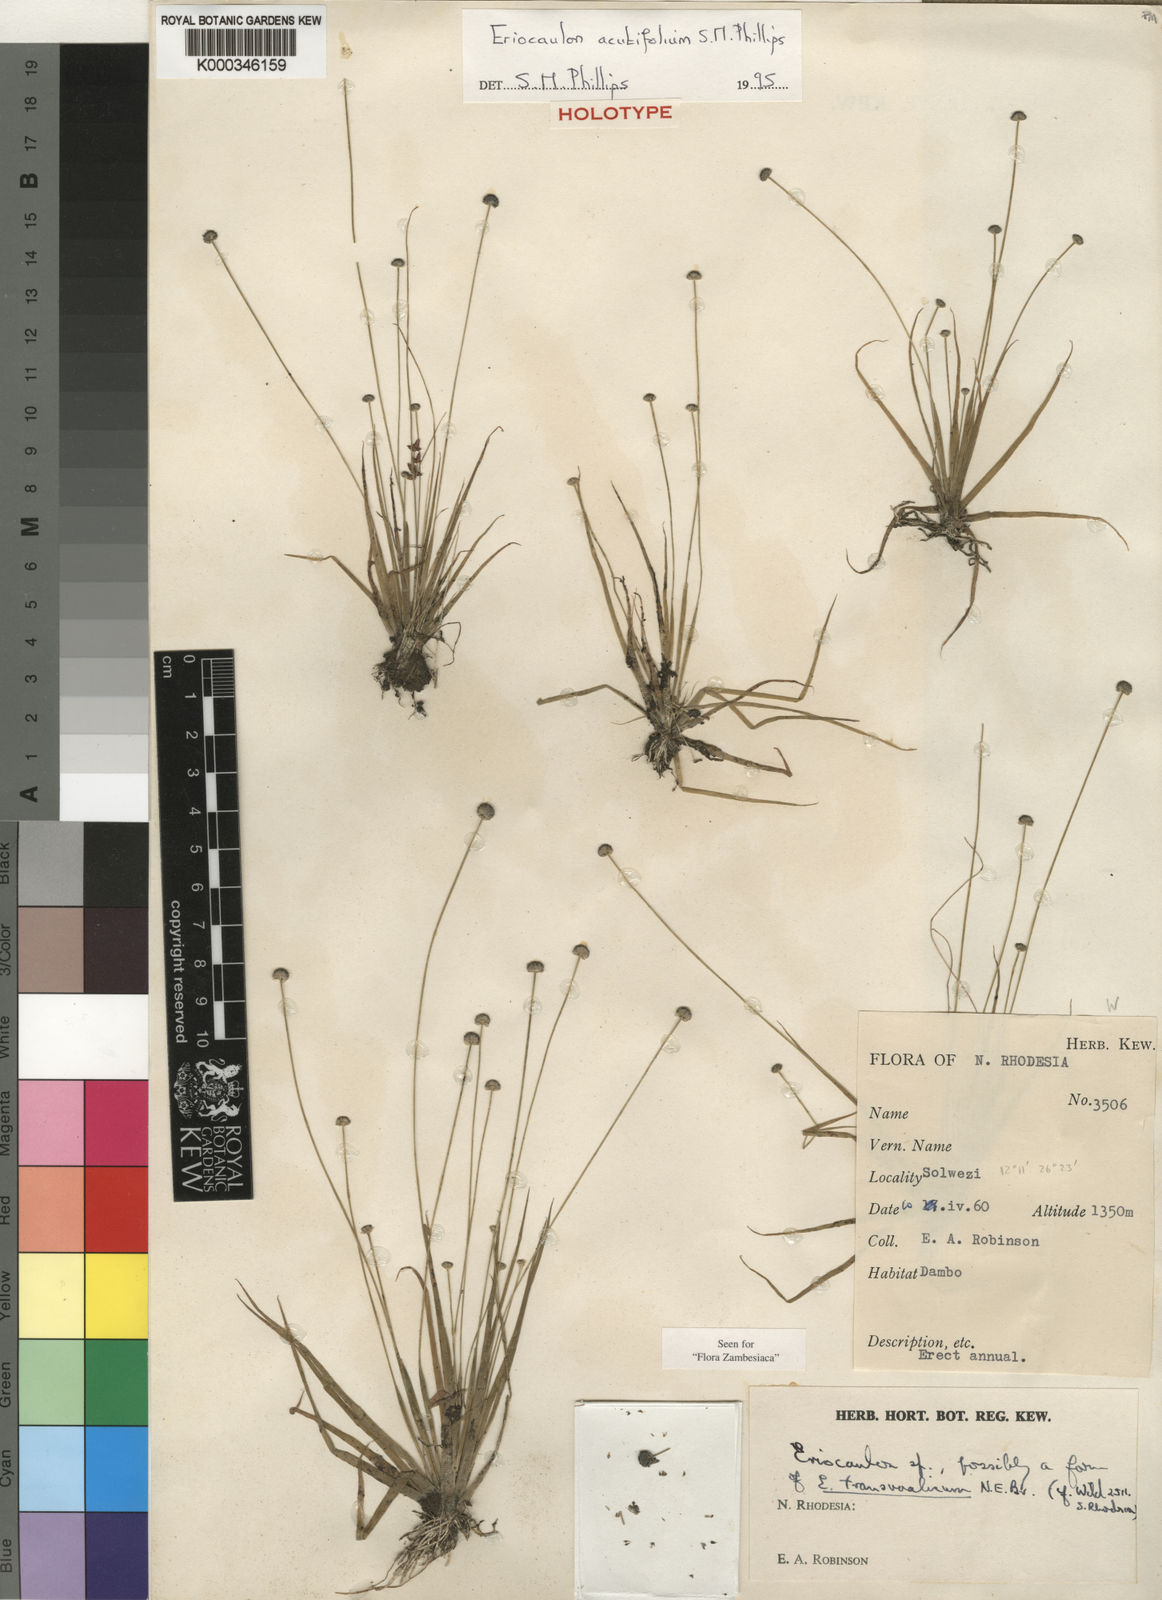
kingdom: Plantae
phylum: Tracheophyta
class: Liliopsida
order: Poales
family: Eriocaulaceae
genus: Eriocaulon
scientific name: Eriocaulon deightonii
